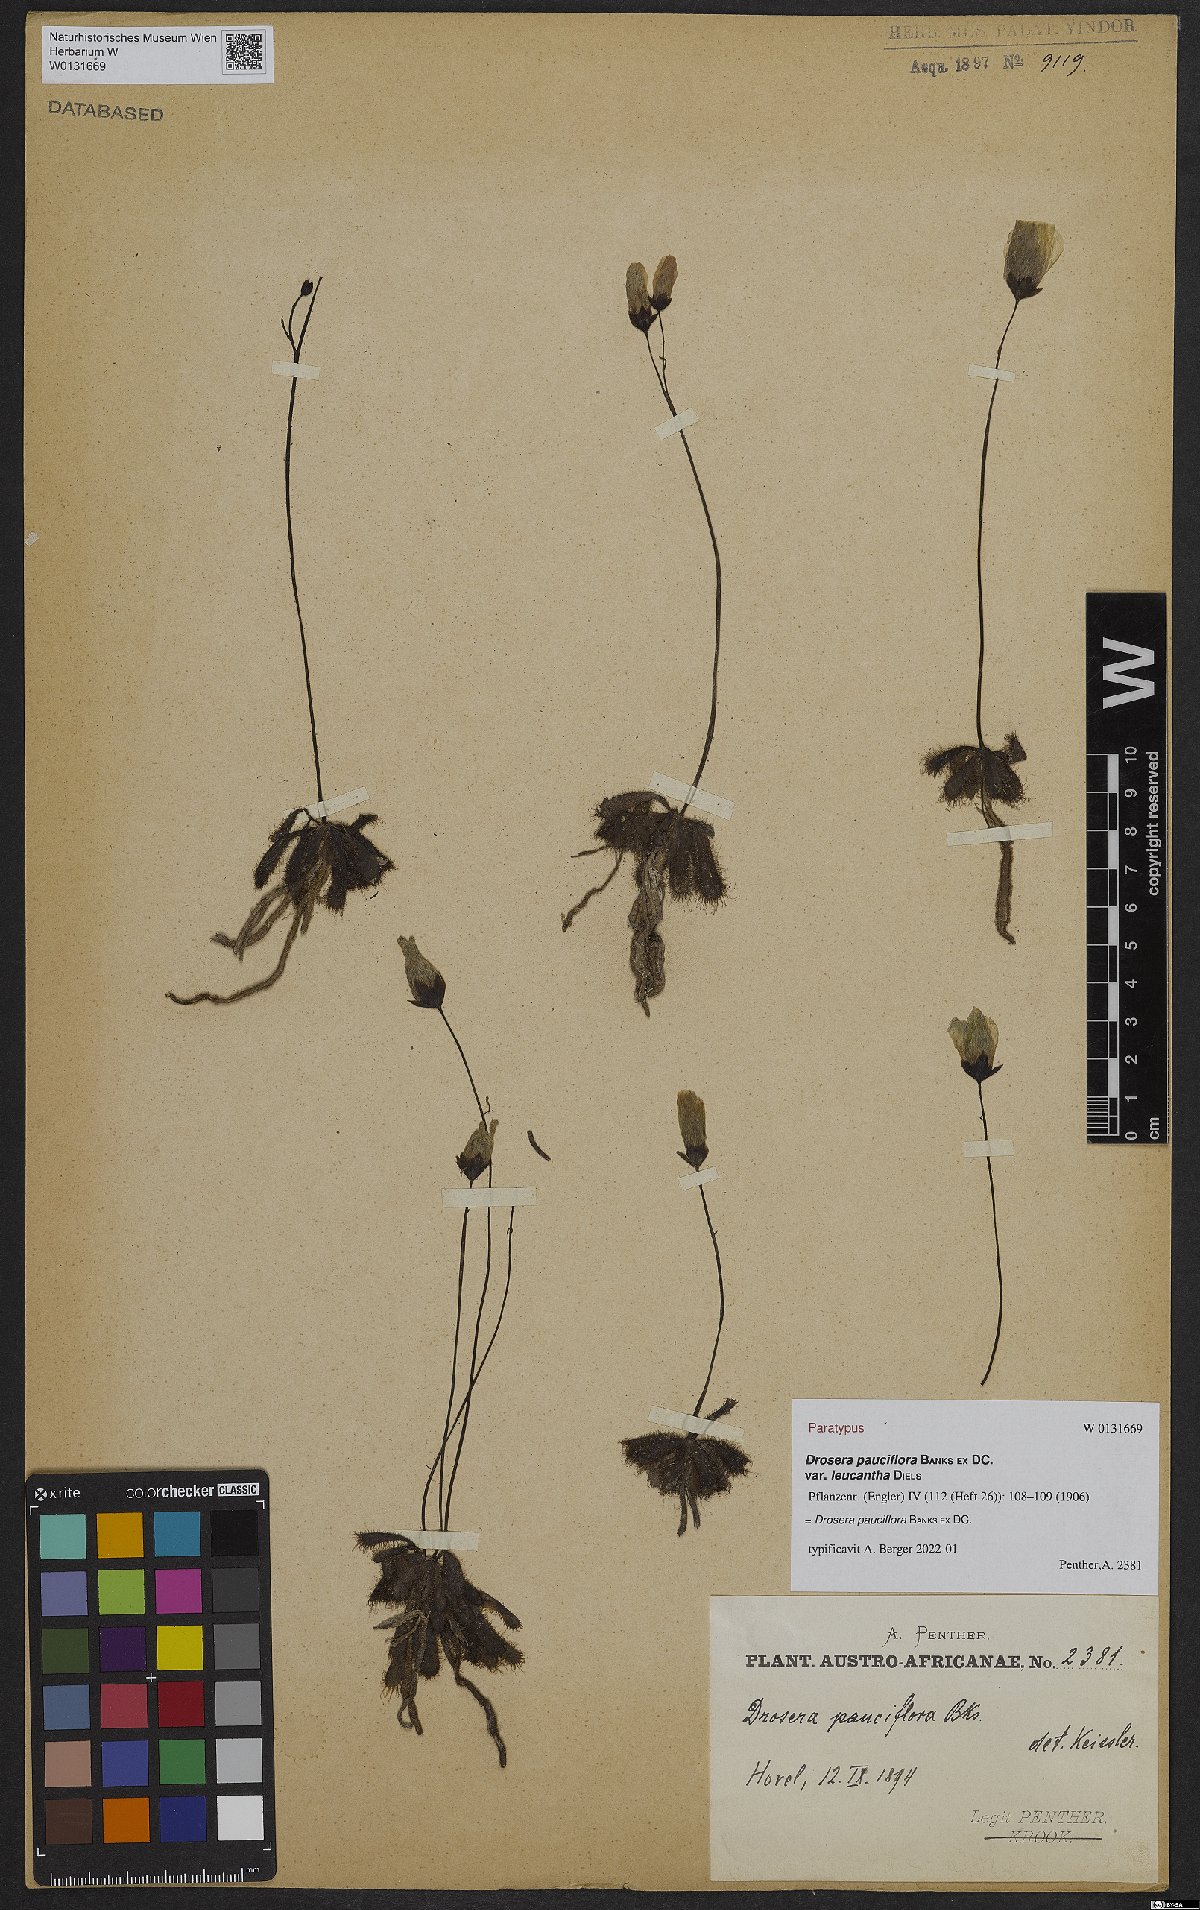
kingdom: Plantae
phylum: Tracheophyta
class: Magnoliopsida
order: Caryophyllales
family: Droseraceae
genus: Drosera
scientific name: Drosera pauciflora
